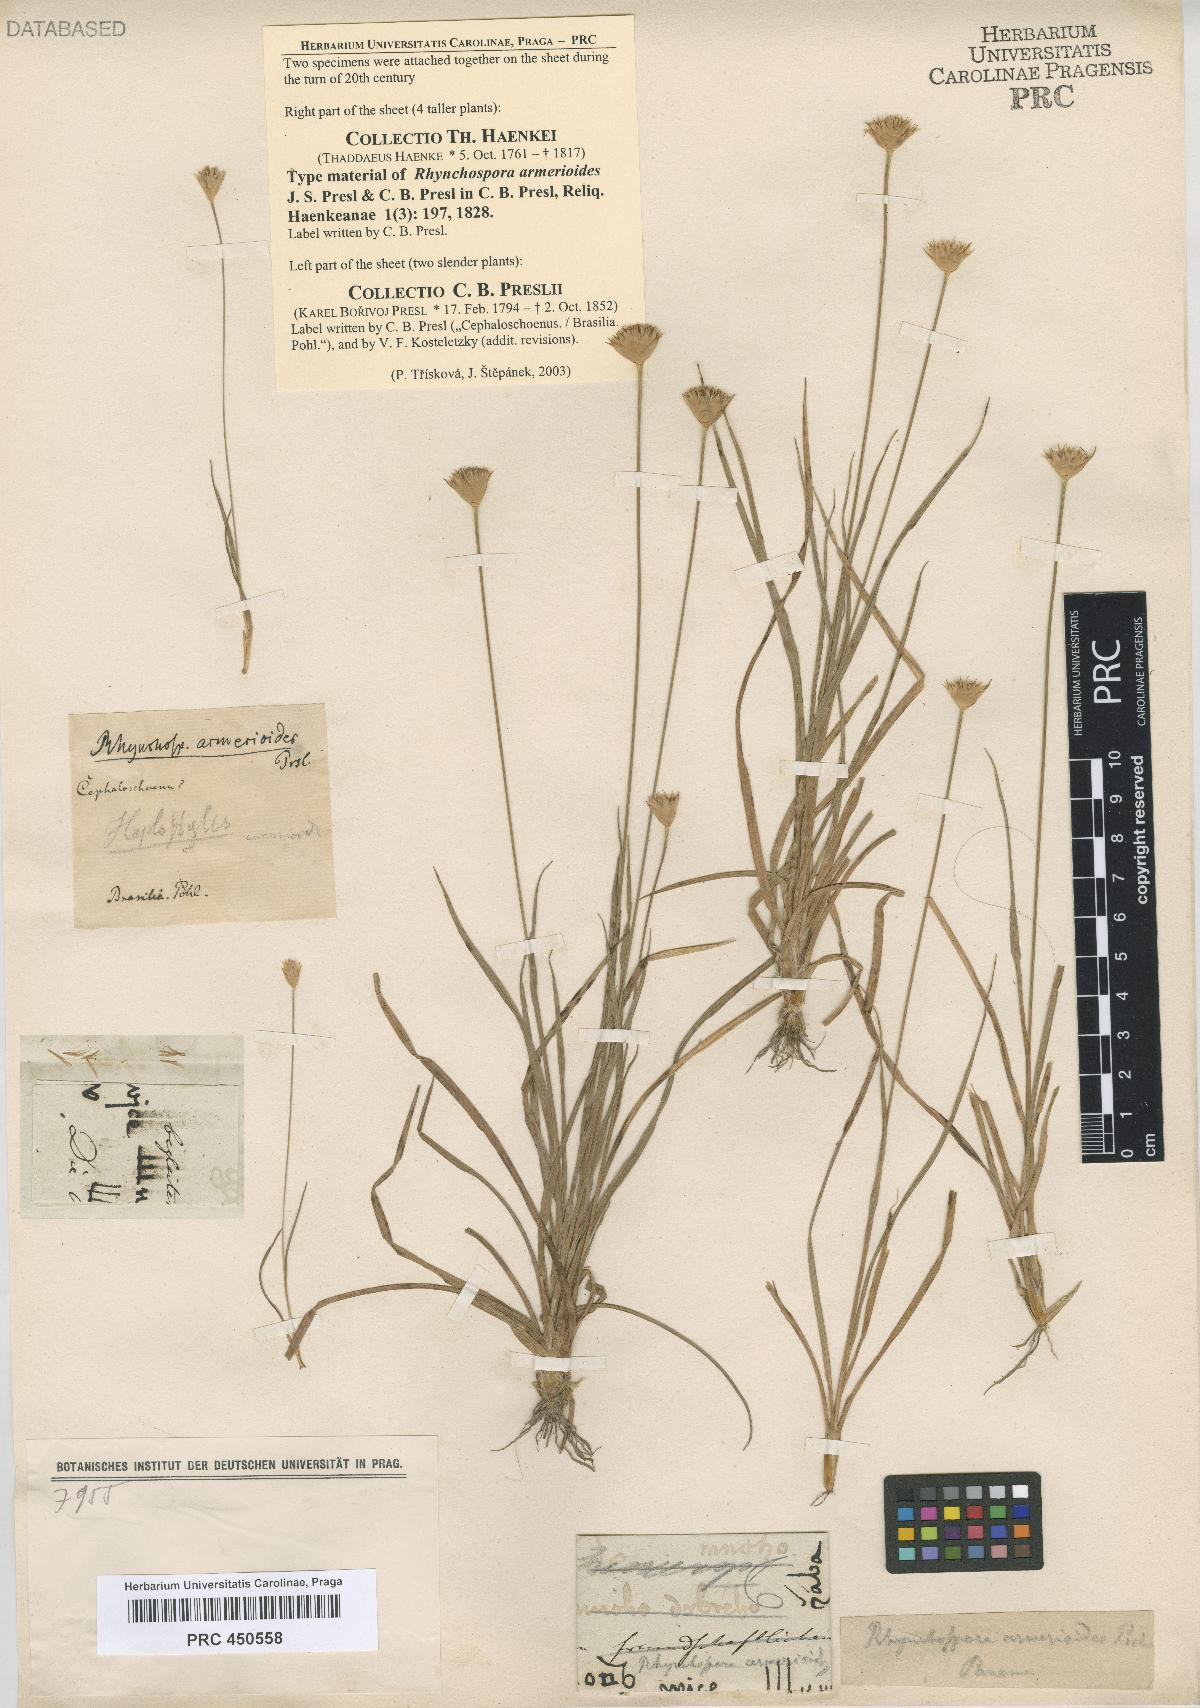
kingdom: Plantae
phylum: Tracheophyta
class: Liliopsida
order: Poales
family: Cyperaceae
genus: Rhynchospora
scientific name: Rhynchospora armerioides
